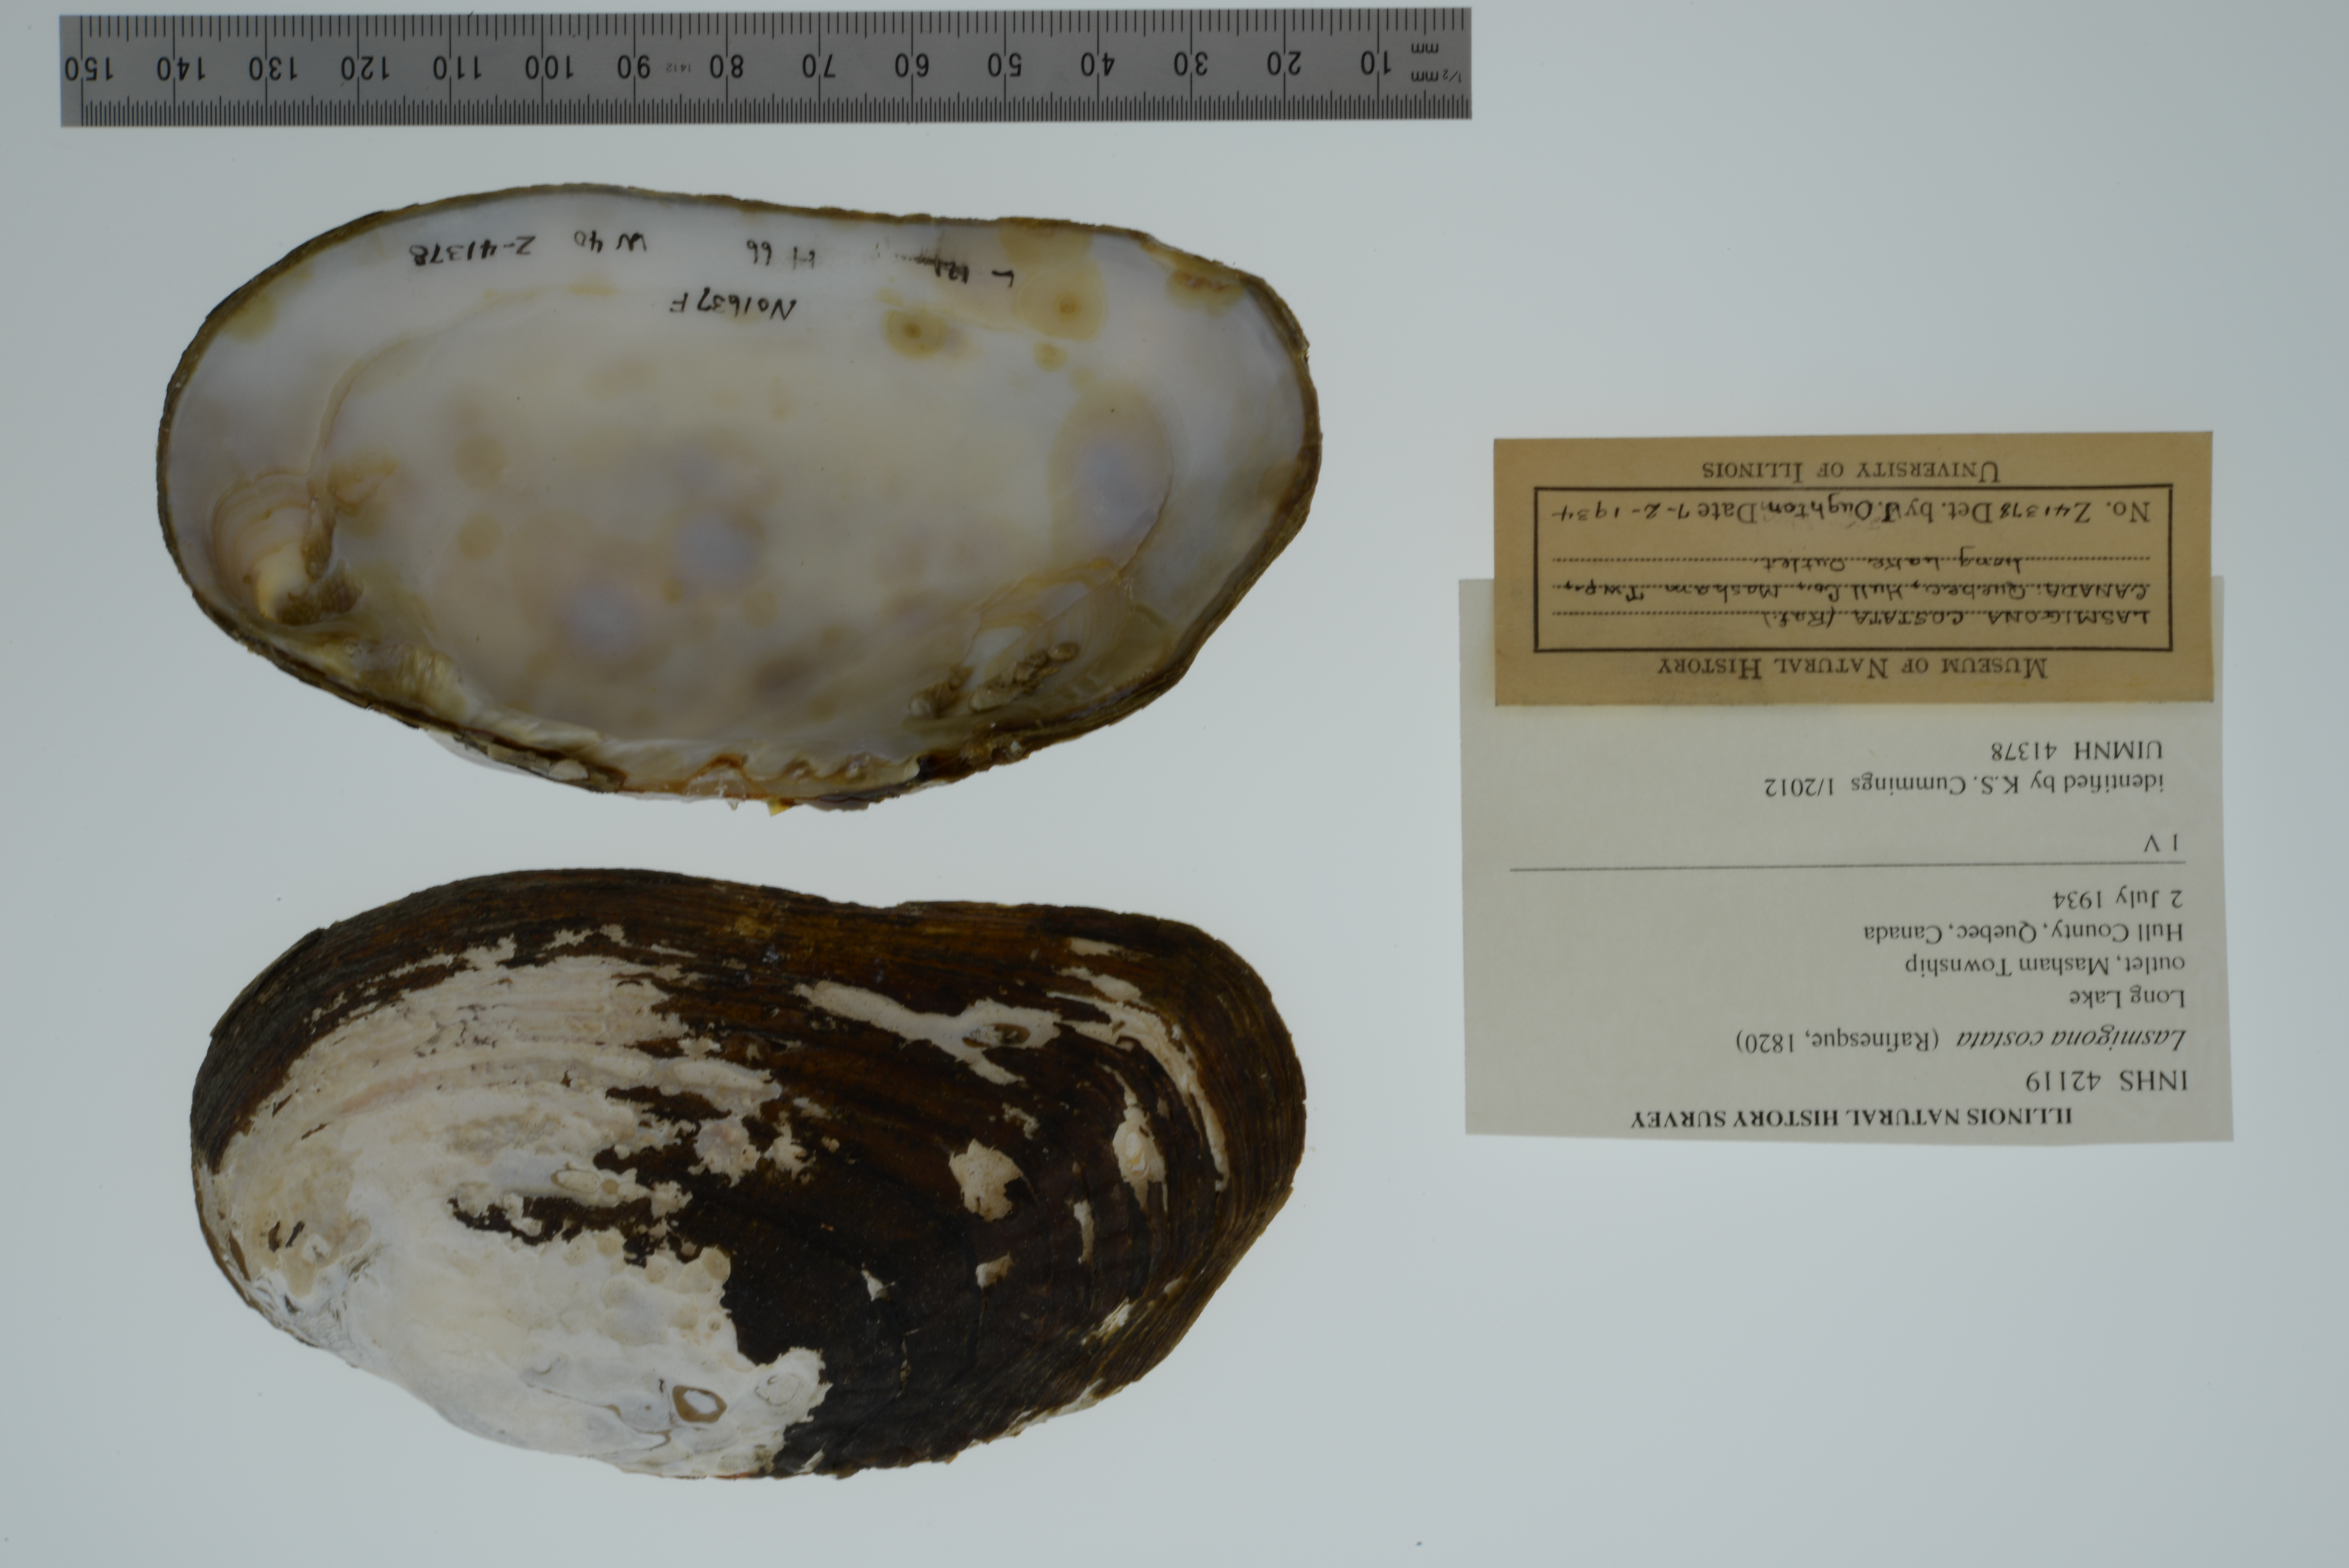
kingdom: Animalia
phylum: Mollusca
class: Bivalvia
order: Unionida
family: Unionidae
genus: Lasmigona
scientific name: Lasmigona costata
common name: Flutedshell
